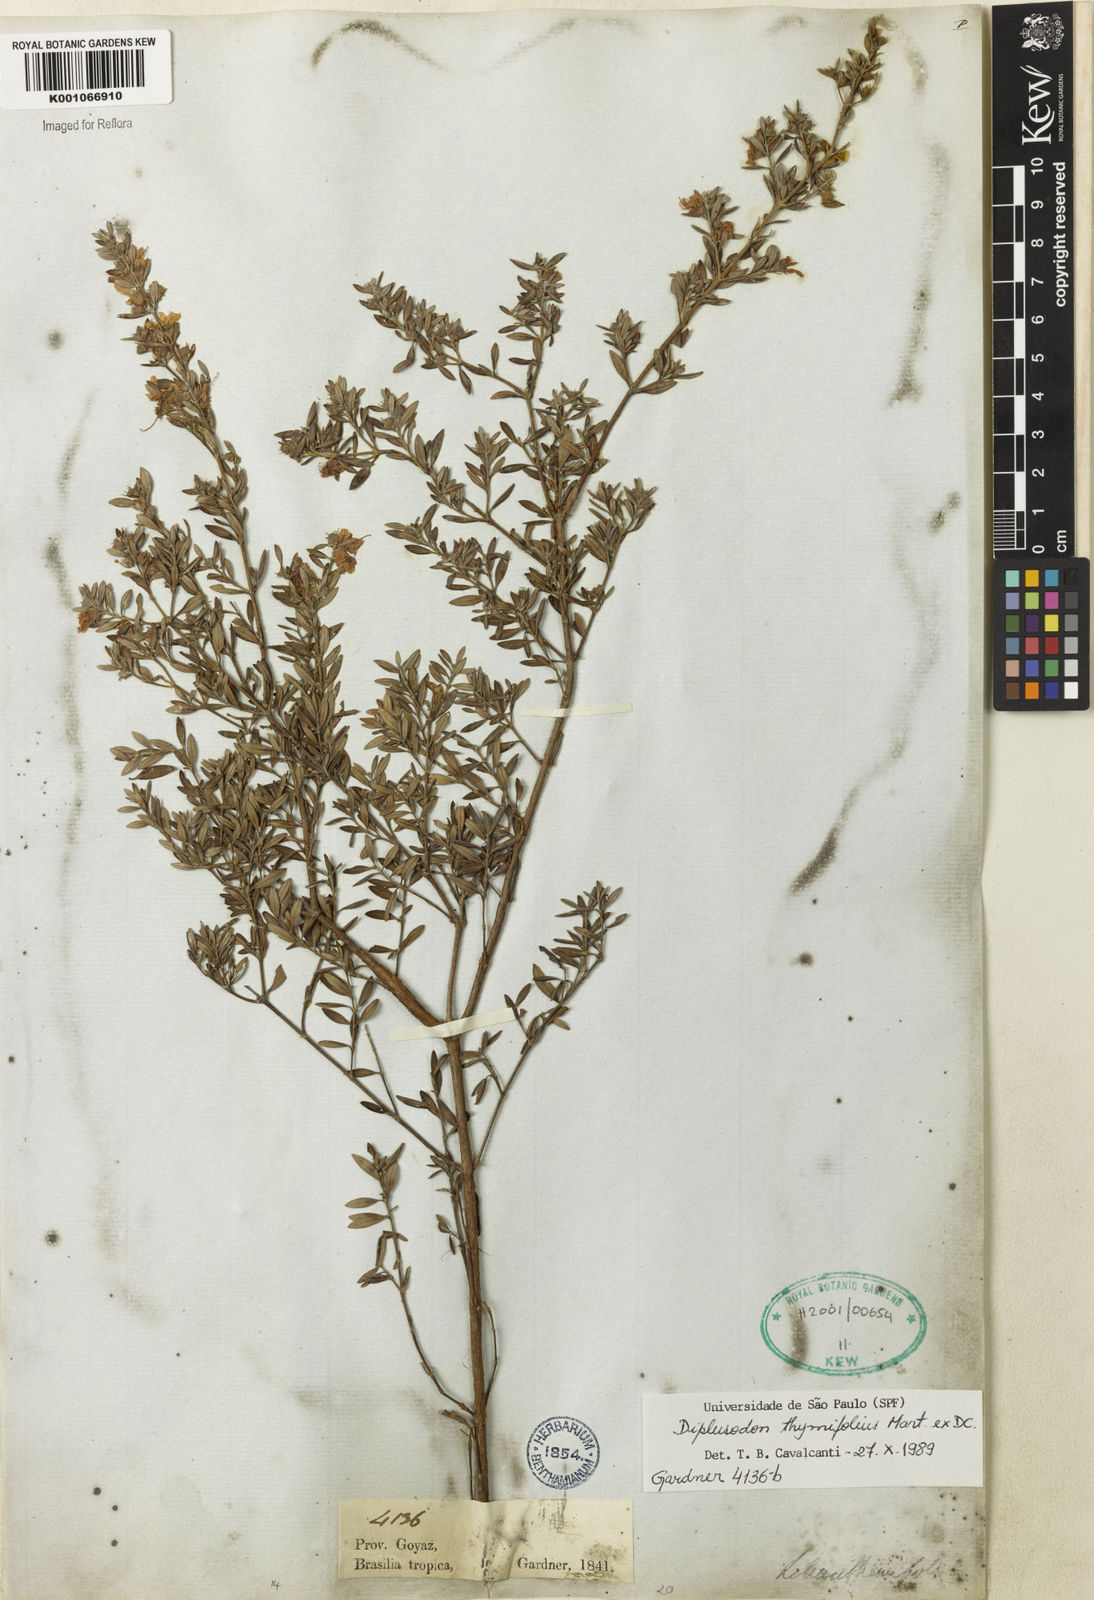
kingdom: Plantae
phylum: Tracheophyta
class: Magnoliopsida
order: Myrtales
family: Lythraceae
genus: Diplusodon
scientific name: Diplusodon thymifolius
